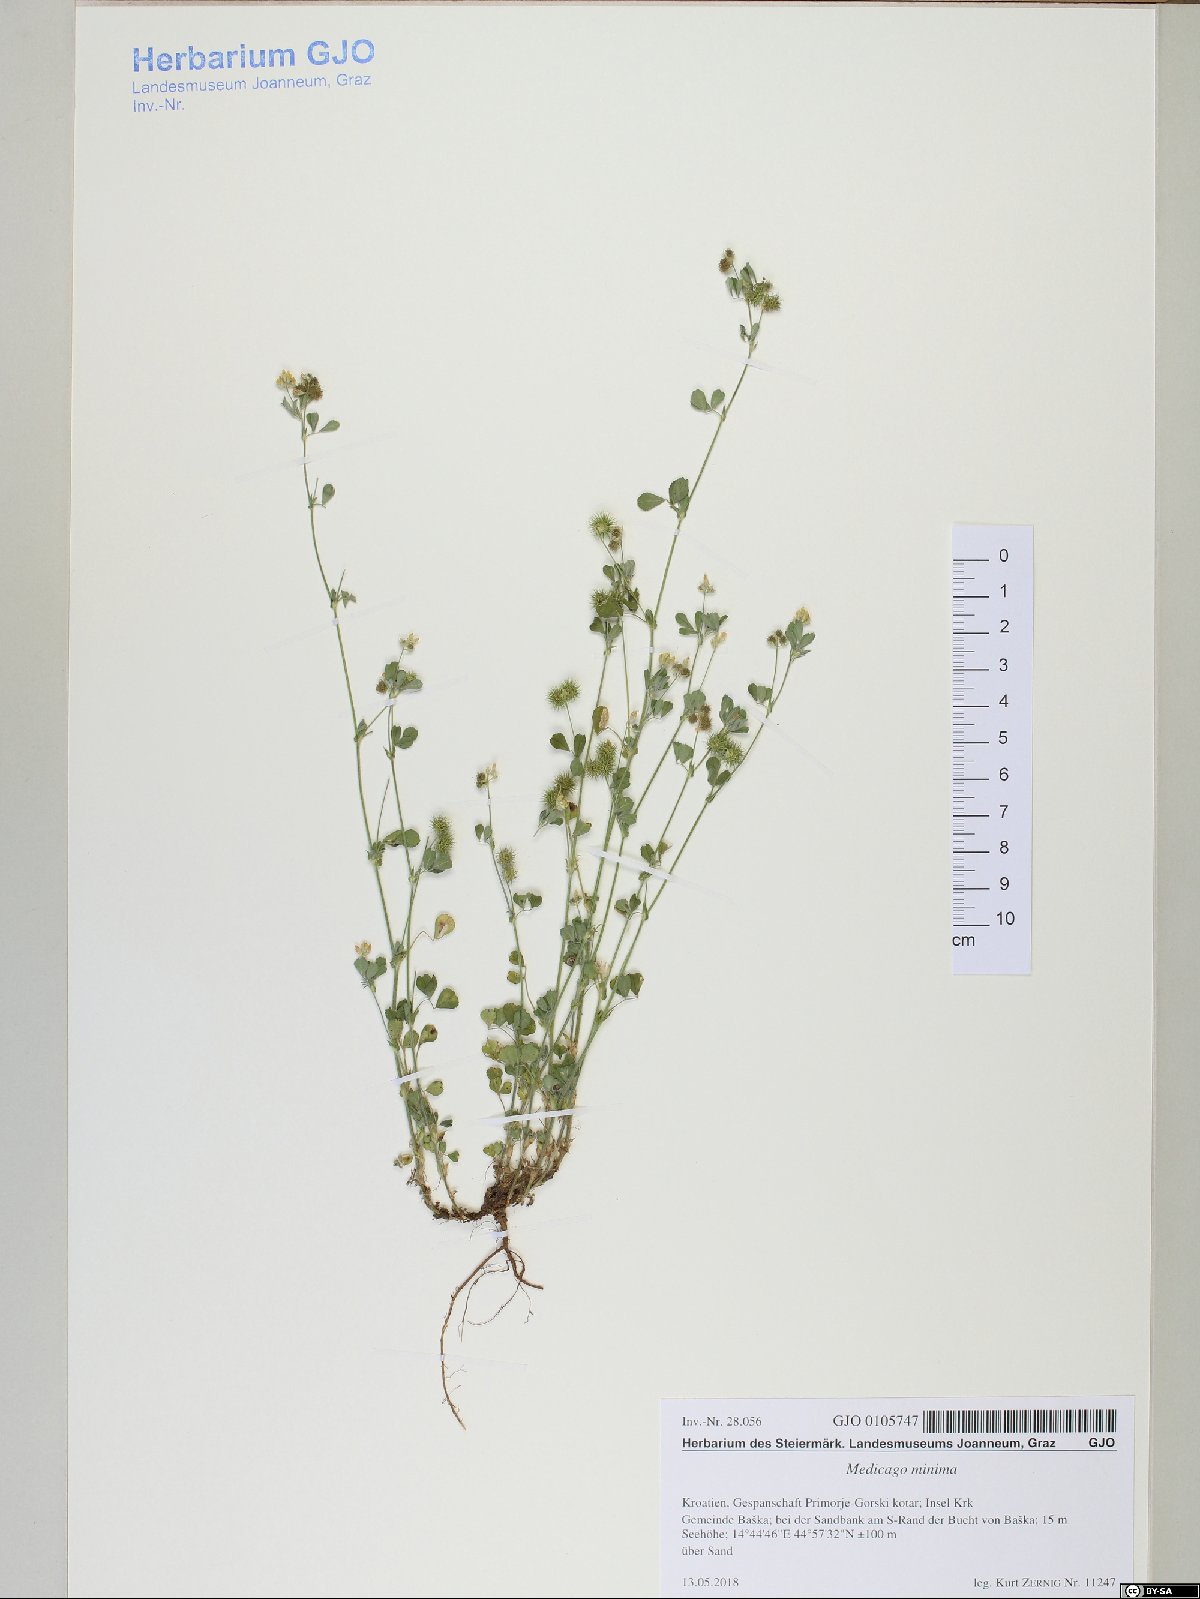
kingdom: Plantae
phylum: Tracheophyta
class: Magnoliopsida
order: Fabales
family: Fabaceae
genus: Medicago
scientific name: Medicago minima
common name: Little bur-clover
